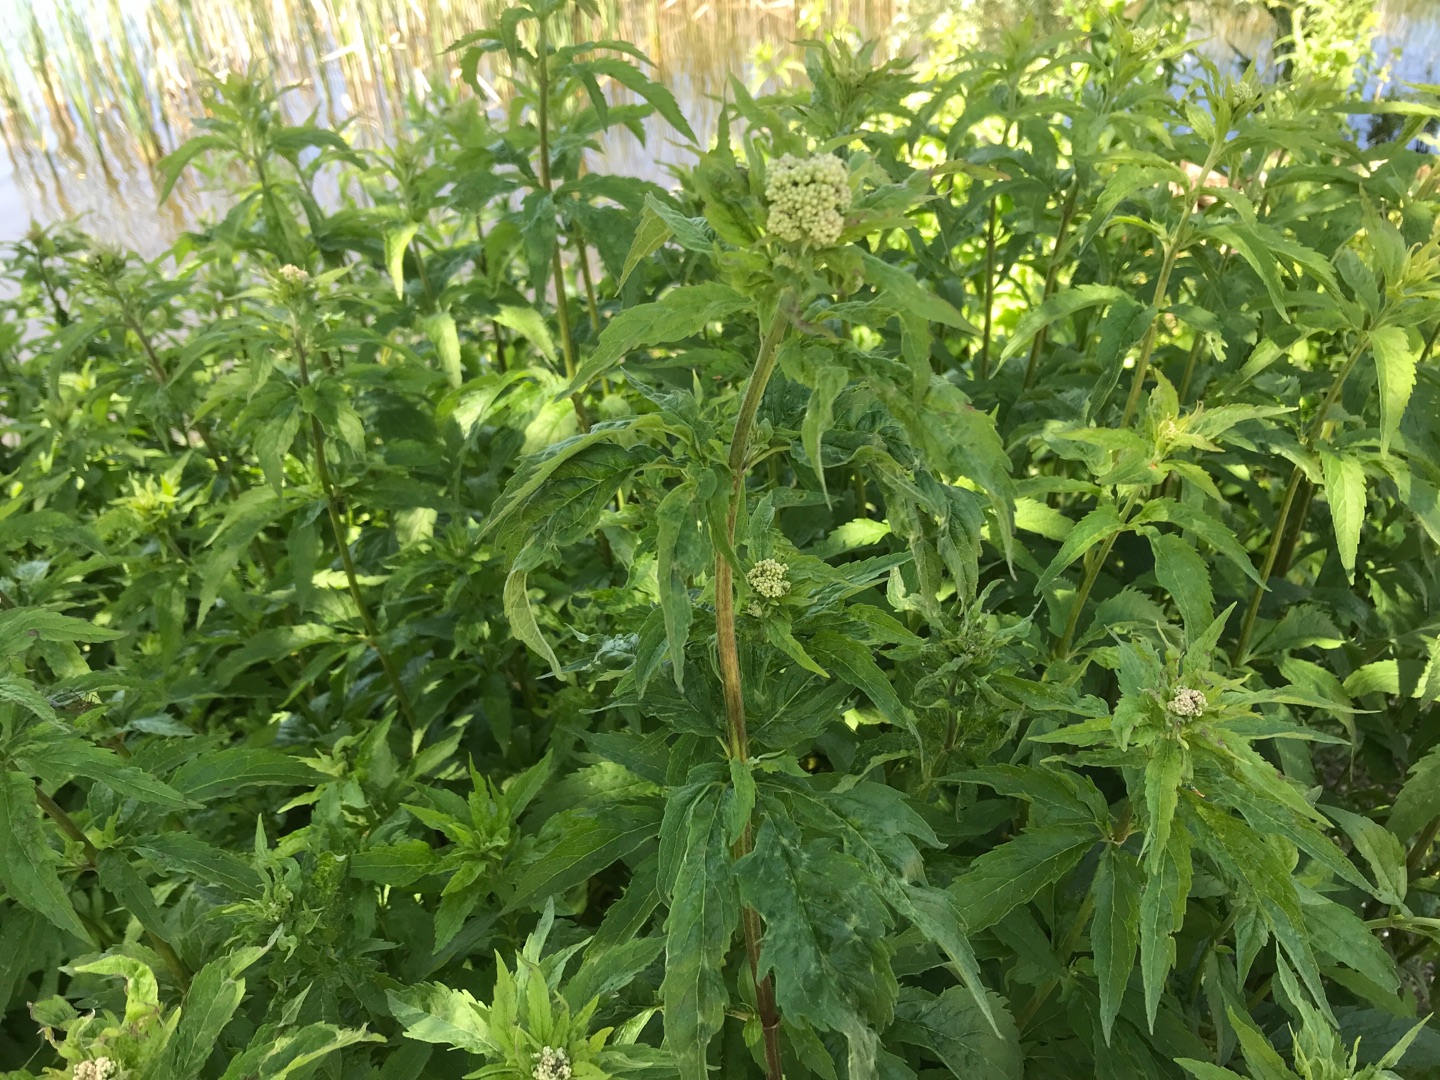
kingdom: Plantae
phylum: Tracheophyta
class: Magnoliopsida
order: Asterales
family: Asteraceae
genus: Eupatorium
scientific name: Eupatorium cannabinum
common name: Hjortetrøst
